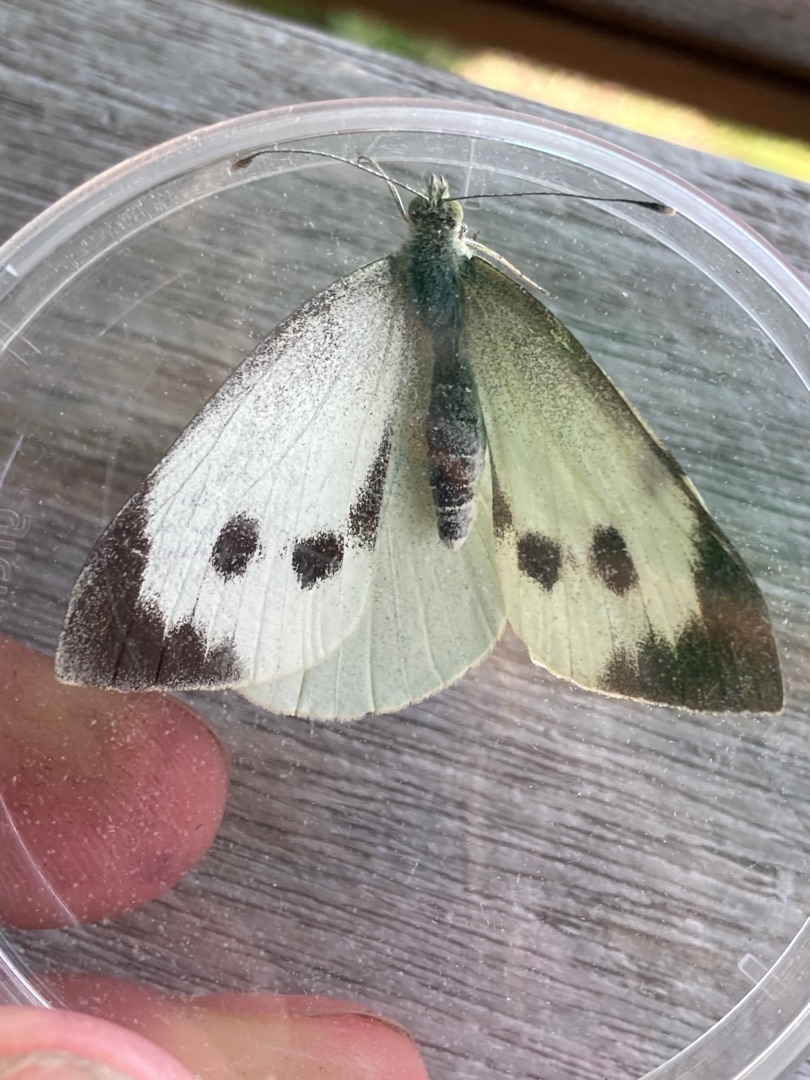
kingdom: Animalia
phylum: Arthropoda
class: Insecta
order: Lepidoptera
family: Pieridae
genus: Pieris
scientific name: Pieris brassicae
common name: Stor kålsommerfugl
